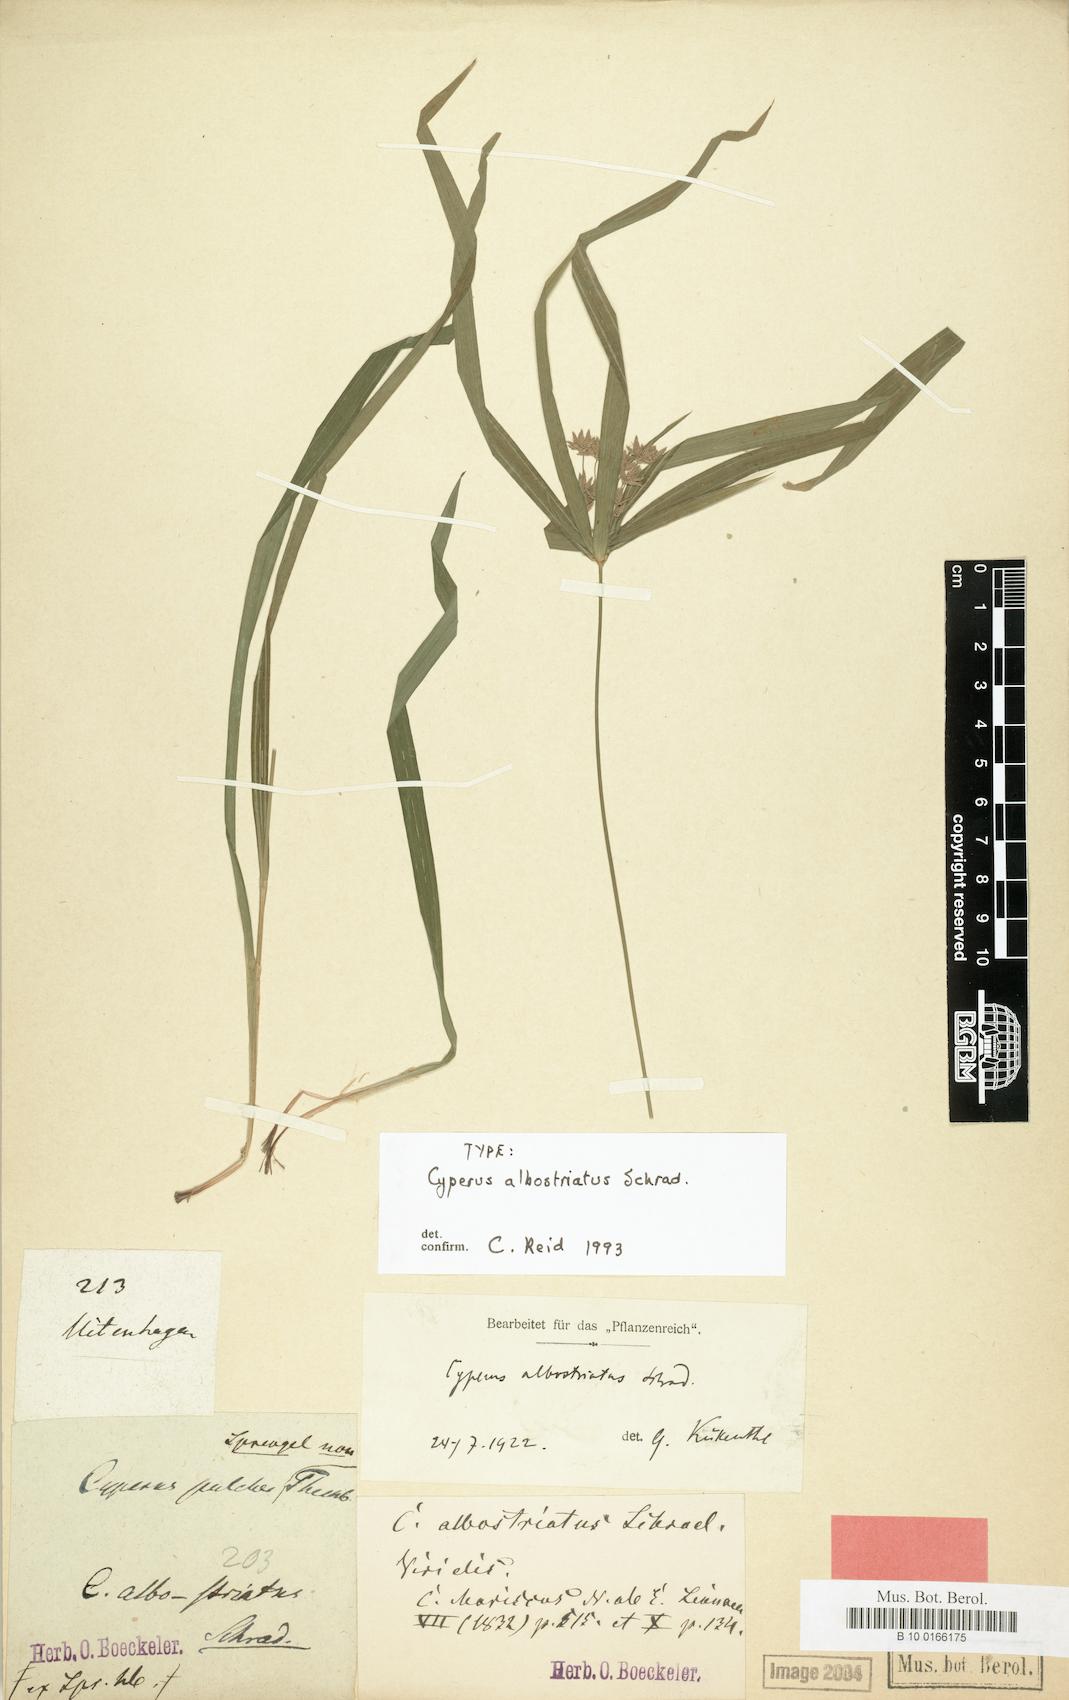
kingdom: Plantae
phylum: Tracheophyta
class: Liliopsida
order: Poales
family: Cyperaceae
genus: Cyperus
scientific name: Cyperus albostriatus
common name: Dwarf umbrella-grass
